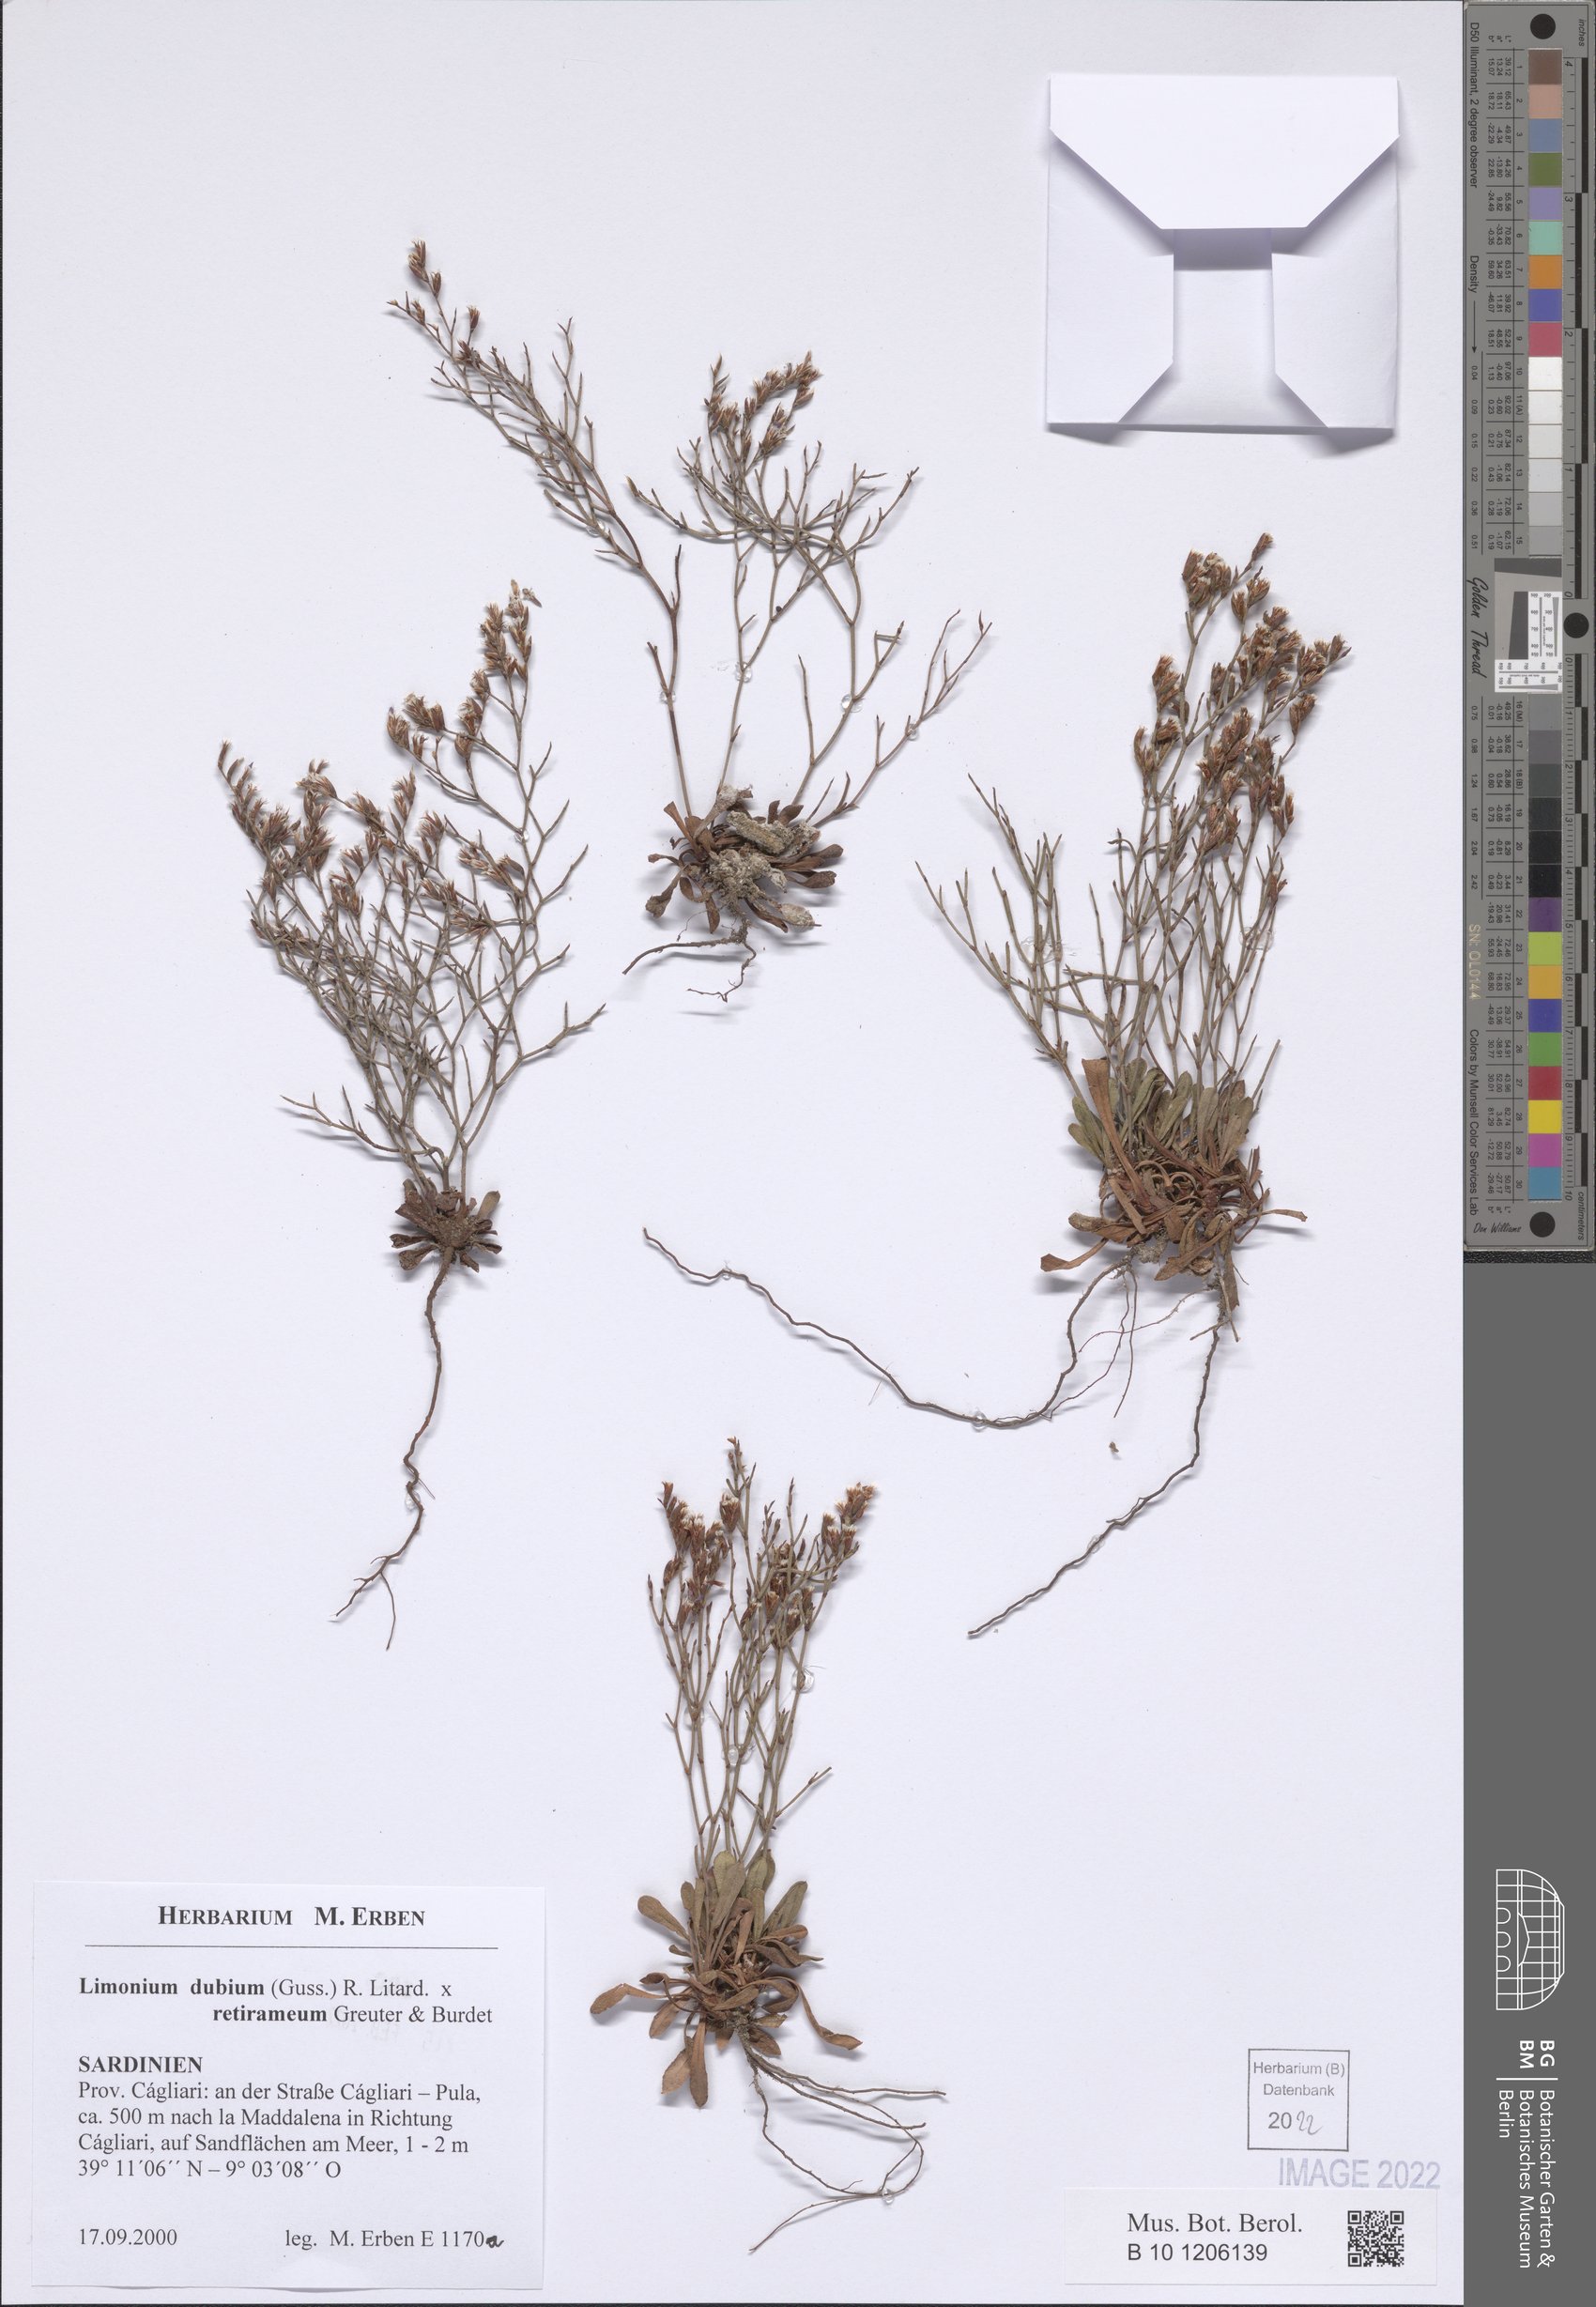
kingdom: Plantae
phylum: Tracheophyta
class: Magnoliopsida
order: Caryophyllales
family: Plumbaginaceae
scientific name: Plumbaginaceae
